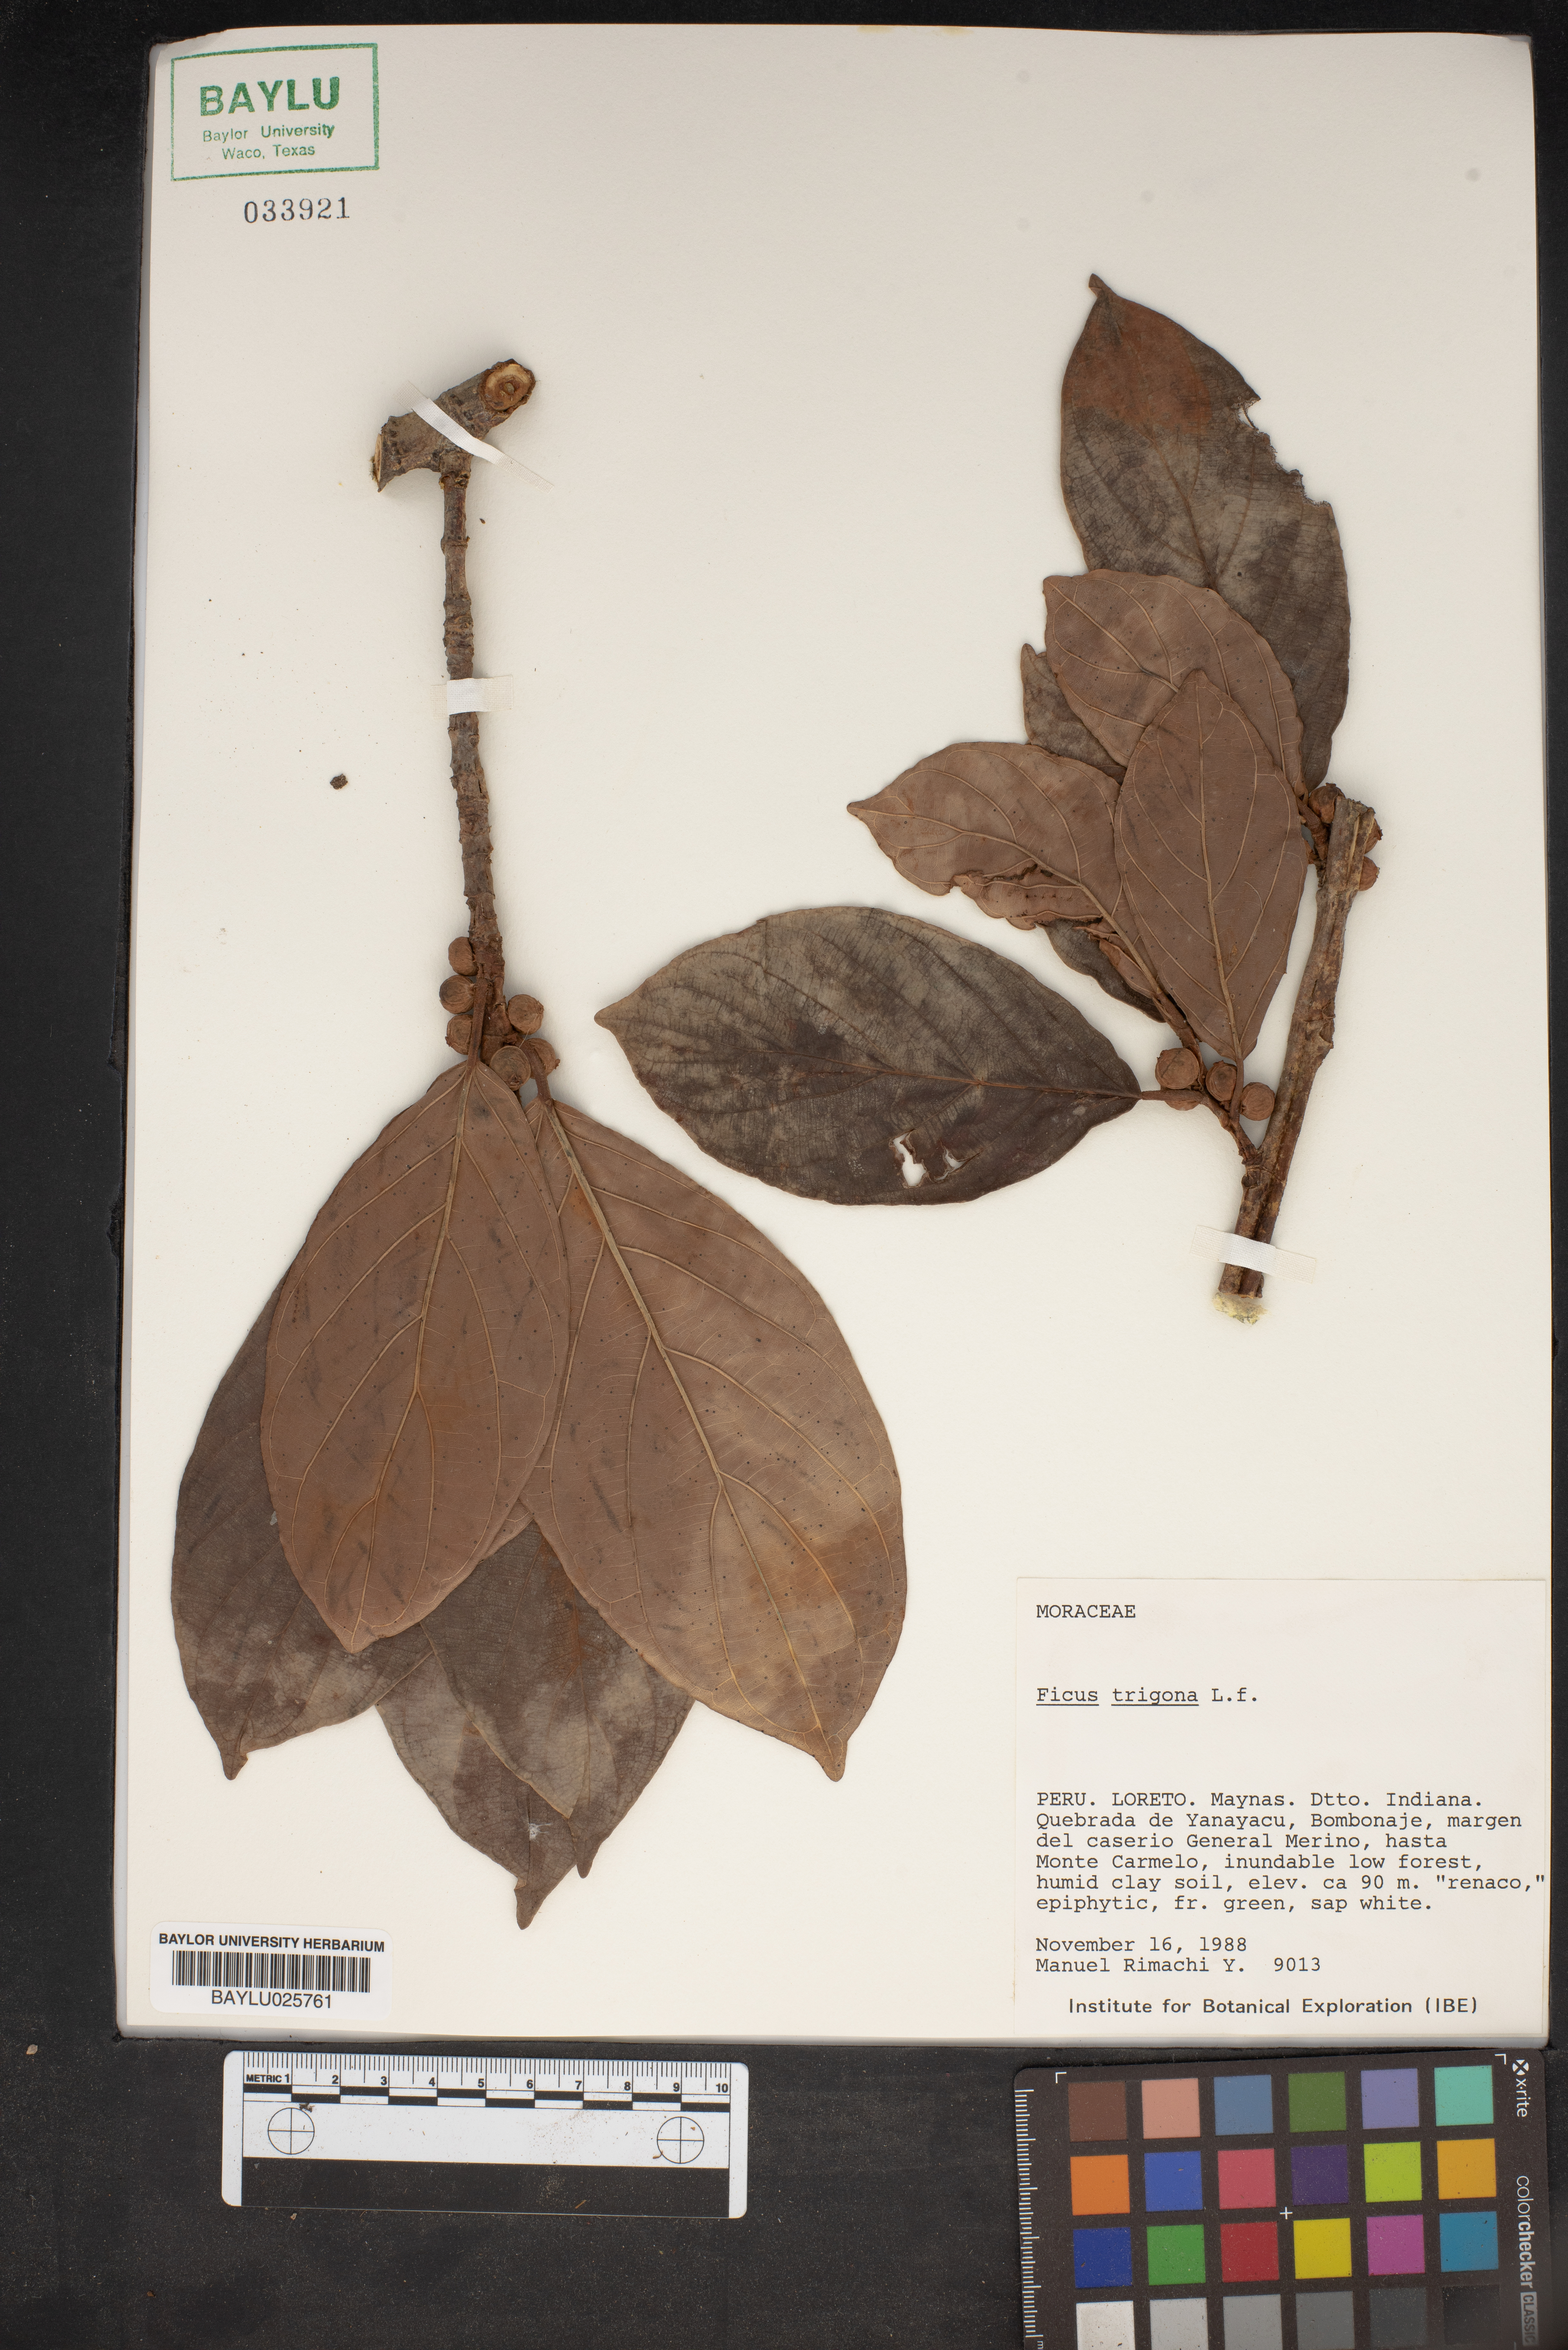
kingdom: Plantae
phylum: Tracheophyta
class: Magnoliopsida
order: Rosales
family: Moraceae
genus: Ficus
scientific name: Ficus trigona
